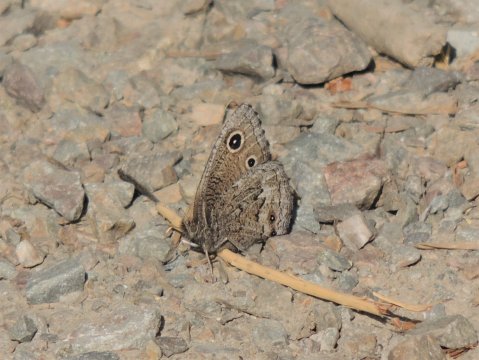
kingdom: Animalia
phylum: Arthropoda
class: Insecta
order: Lepidoptera
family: Nymphalidae
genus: Cercyonis
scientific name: Cercyonis oetus
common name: Small Wood-Nymph
